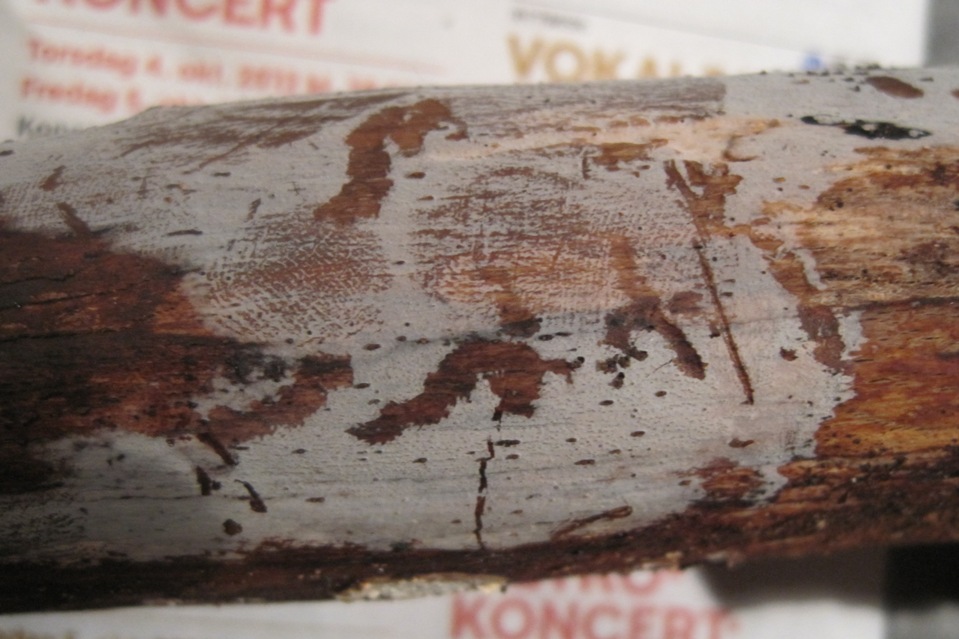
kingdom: Fungi
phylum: Basidiomycota
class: Tremellomycetes
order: Tremellales
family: Exidiaceae
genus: Exidiopsis
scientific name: Exidiopsis effusa
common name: smuk bævrehinde
